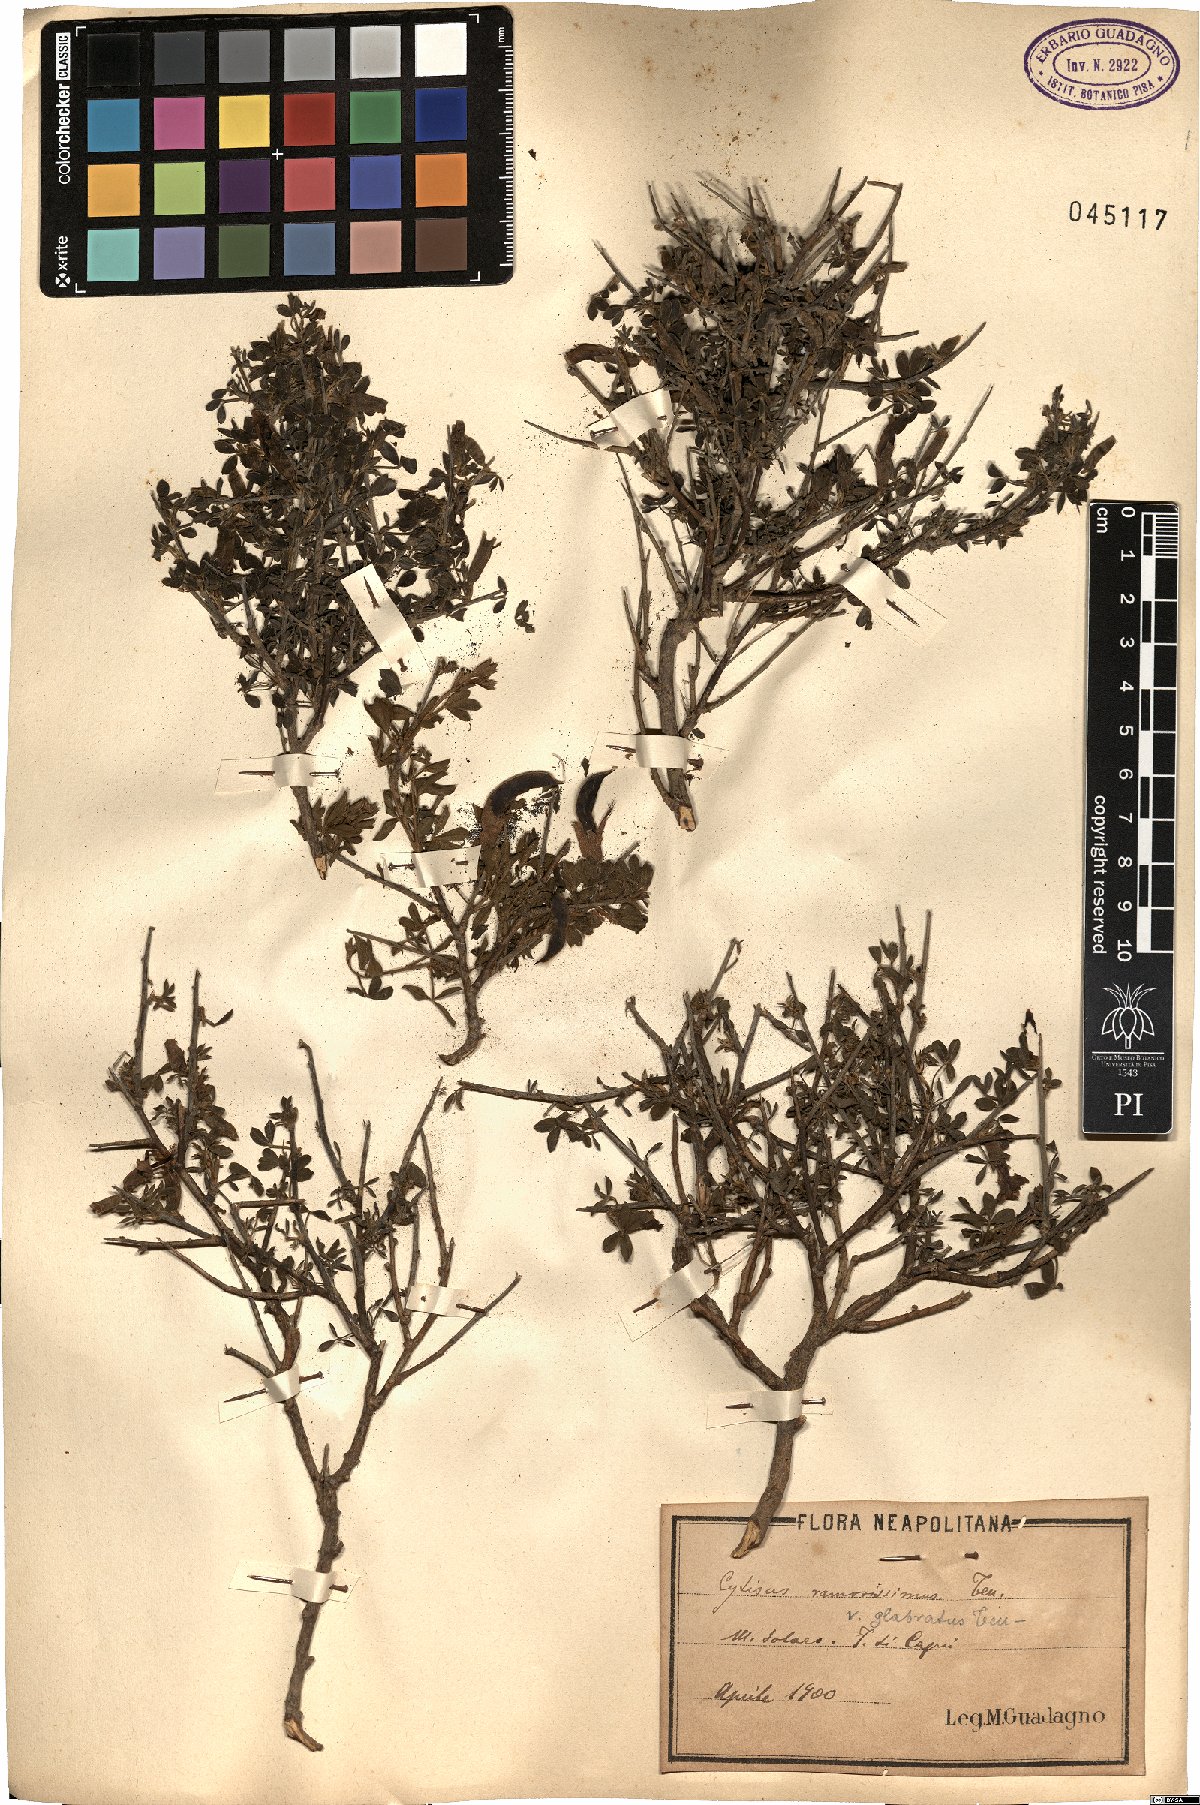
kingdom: Plantae
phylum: Tracheophyta
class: Magnoliopsida
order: Fabales
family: Fabaceae
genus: Chamaecytisus
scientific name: Chamaecytisus spinescens
